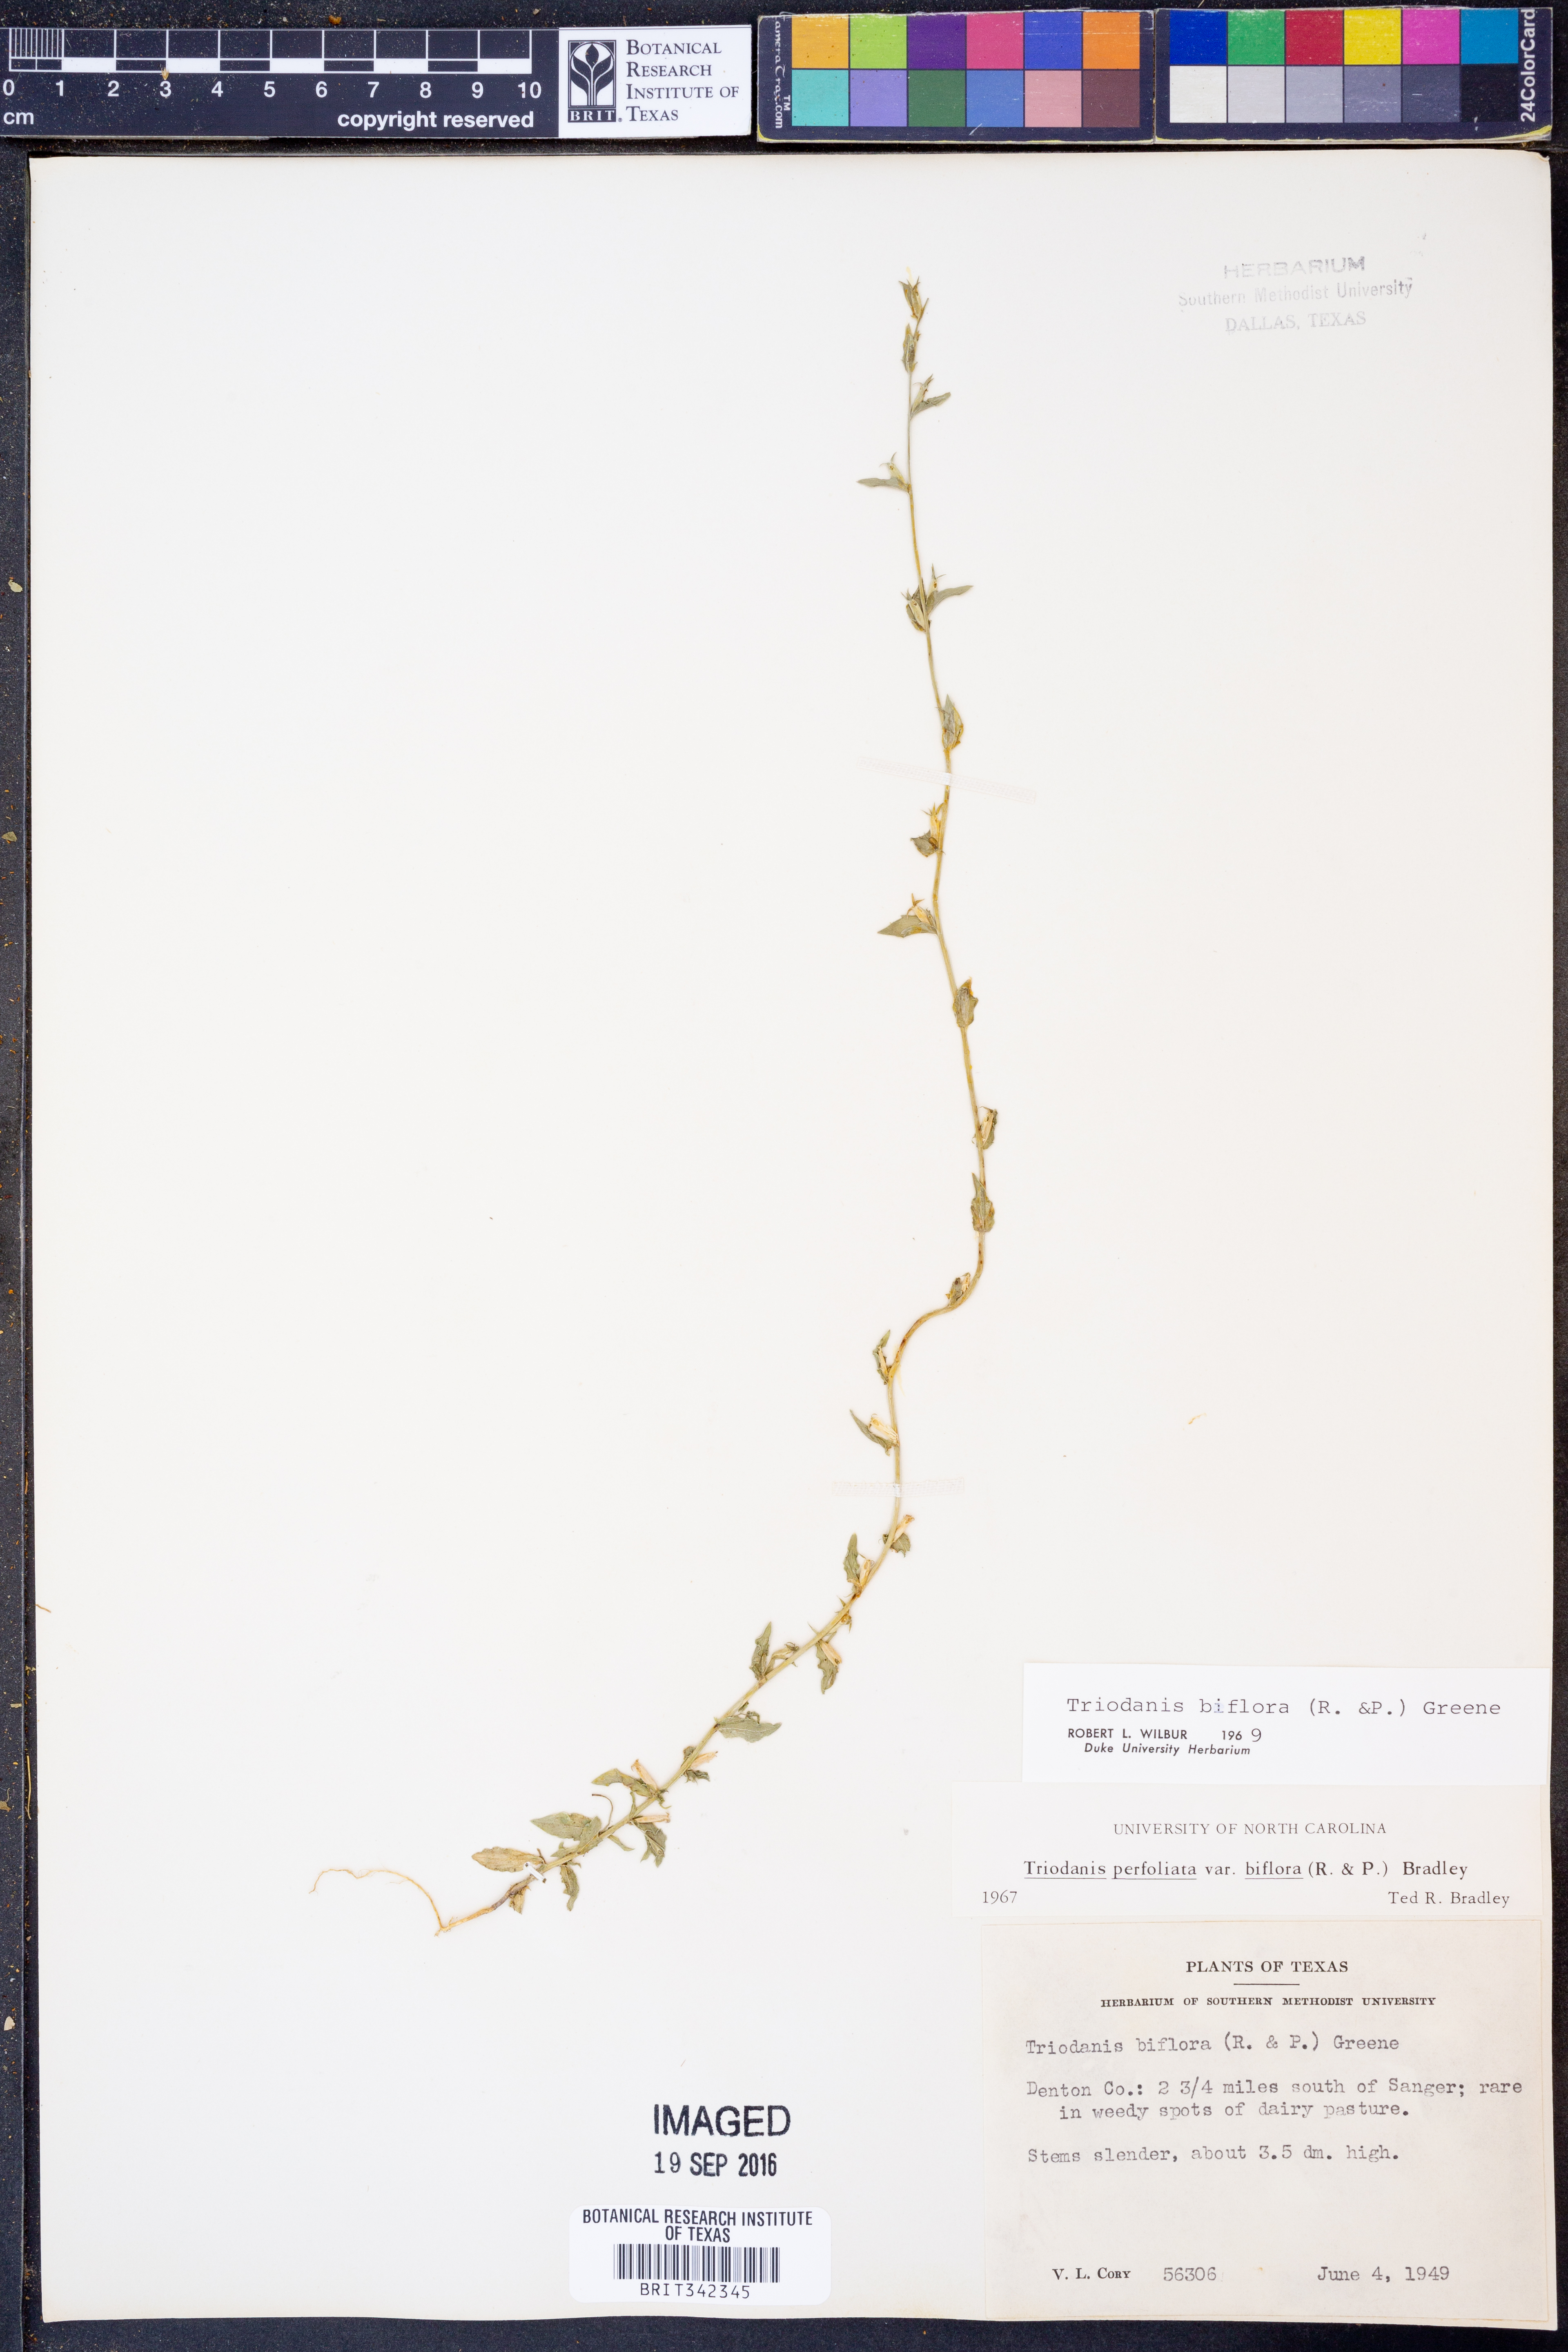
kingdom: Plantae
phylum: Tracheophyta
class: Magnoliopsida
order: Asterales
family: Campanulaceae
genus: Triodanis
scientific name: Triodanis perfoliata
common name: Clasping venus' looking-glass
